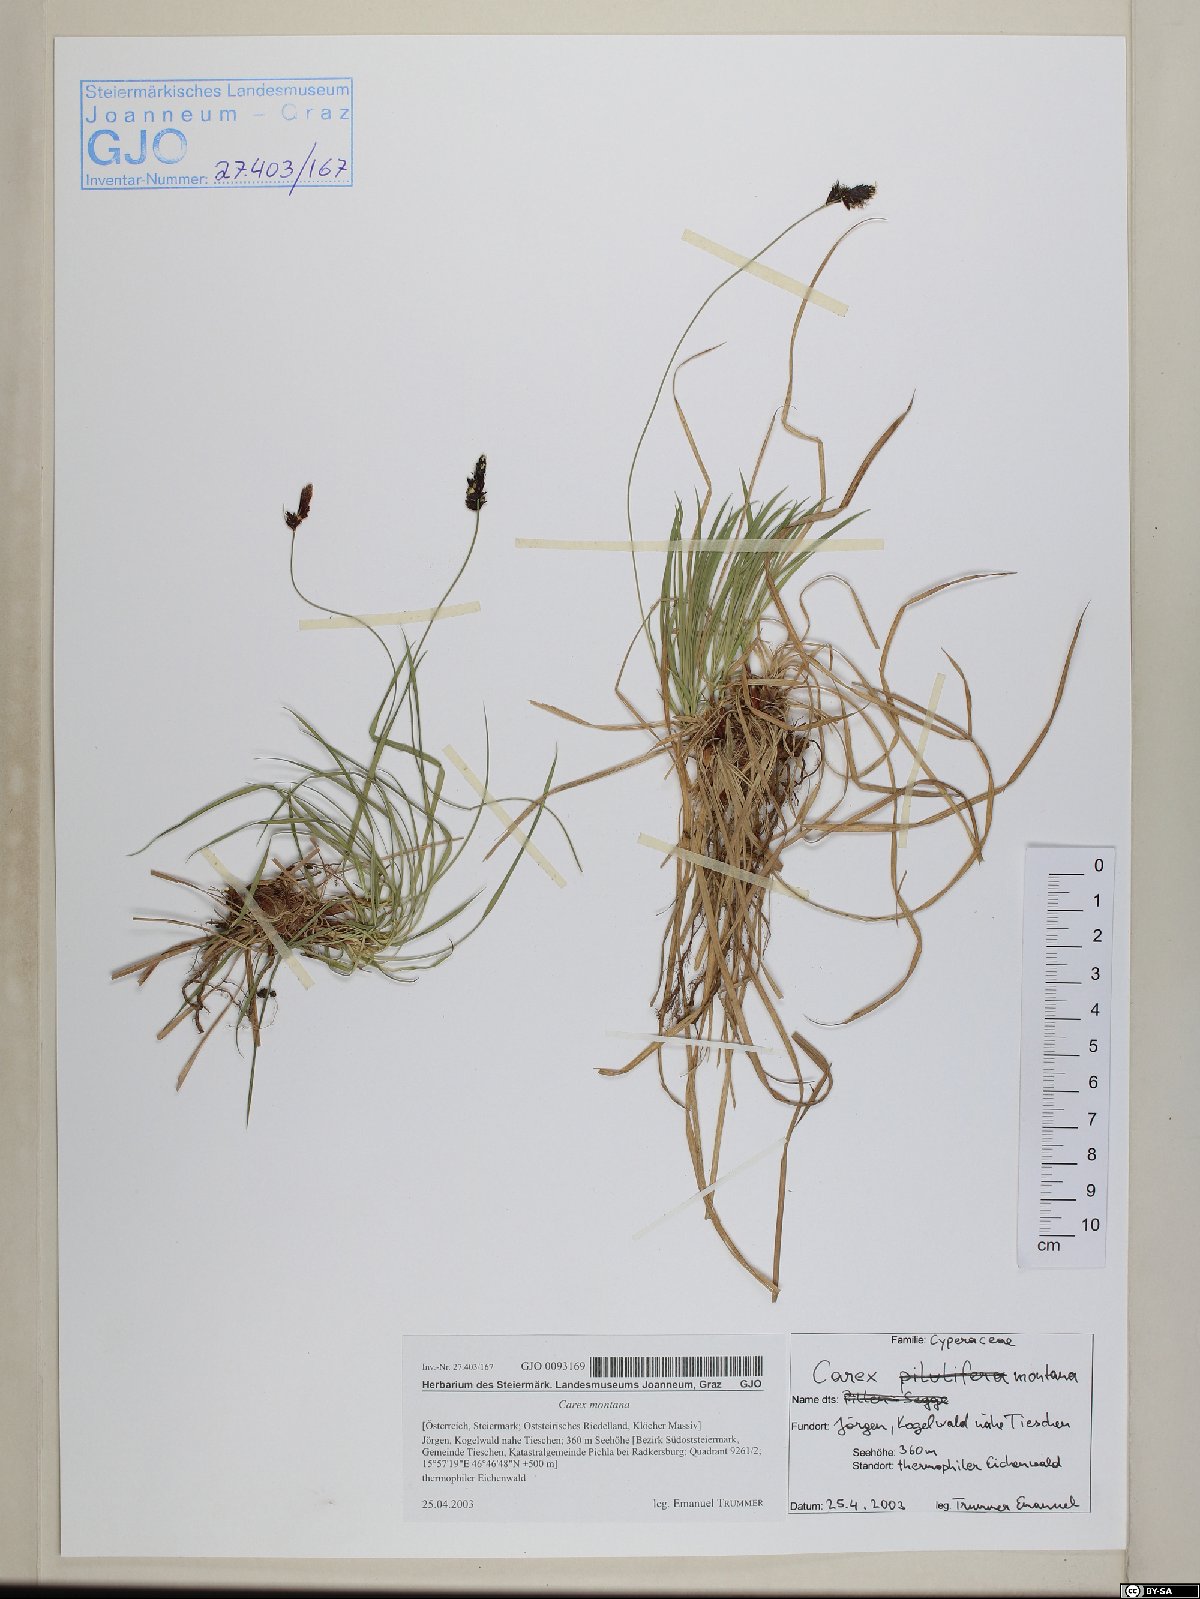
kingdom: Plantae
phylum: Tracheophyta
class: Liliopsida
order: Poales
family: Cyperaceae
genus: Carex
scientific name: Carex montana
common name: Soft-leaved sedge
